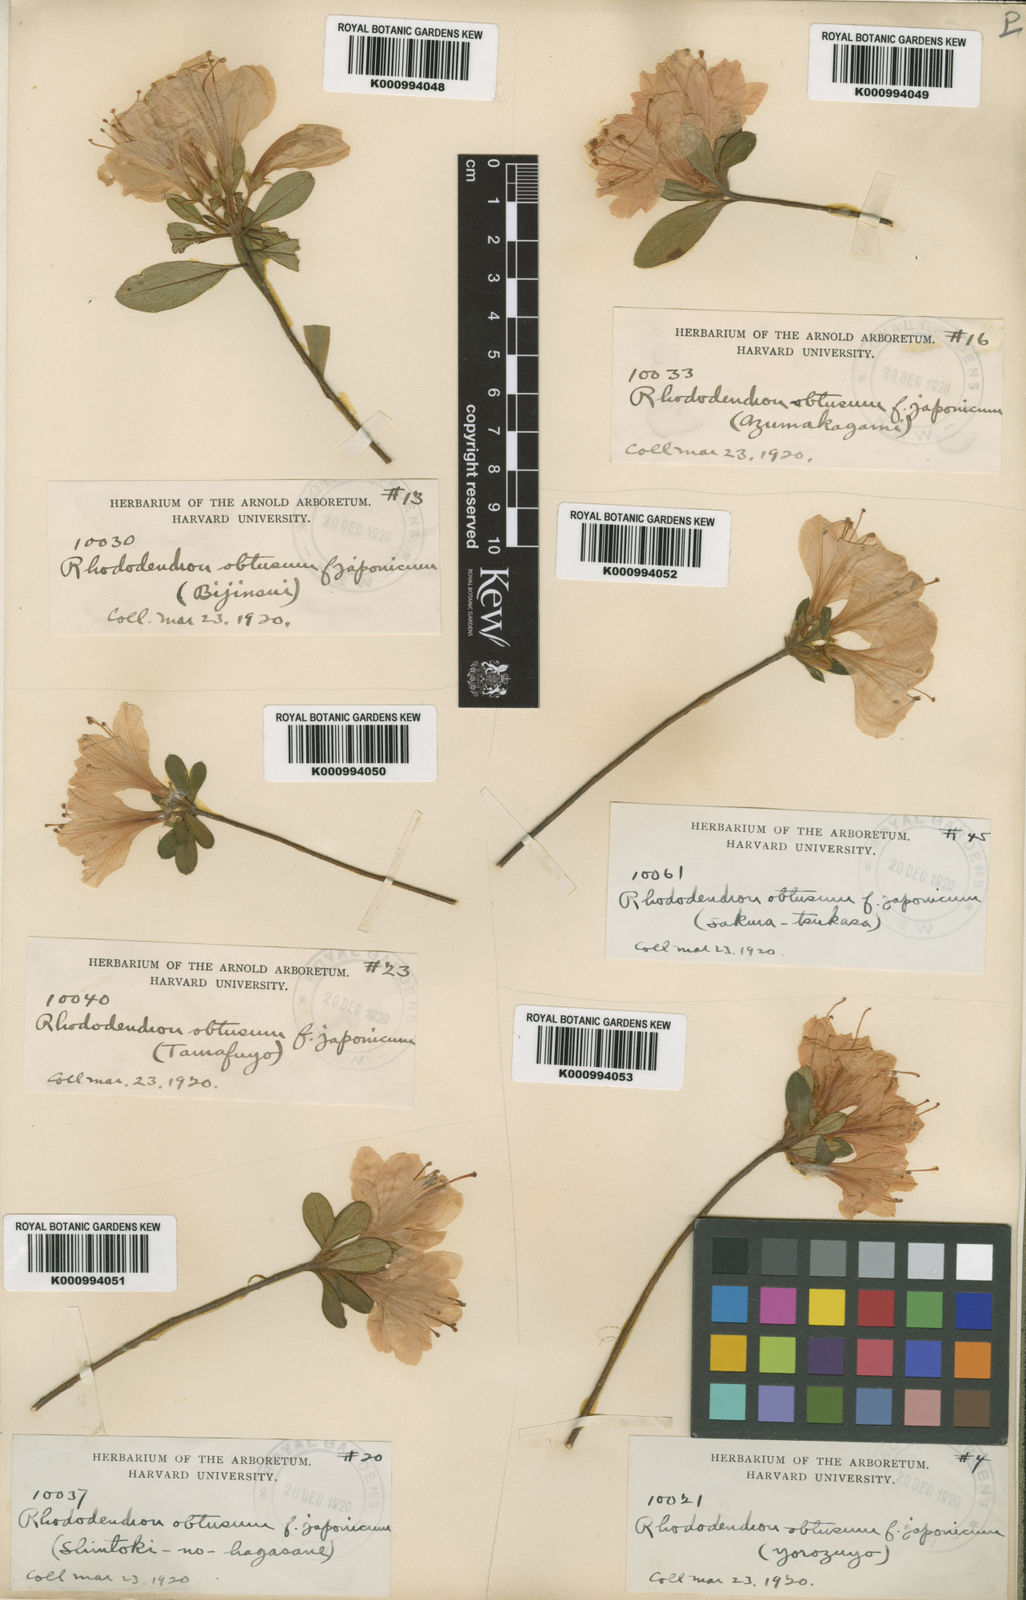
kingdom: Plantae
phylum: Tracheophyta
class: Magnoliopsida
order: Ericales
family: Ericaceae
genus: Rhododendron
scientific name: Rhododendron kiusianum
